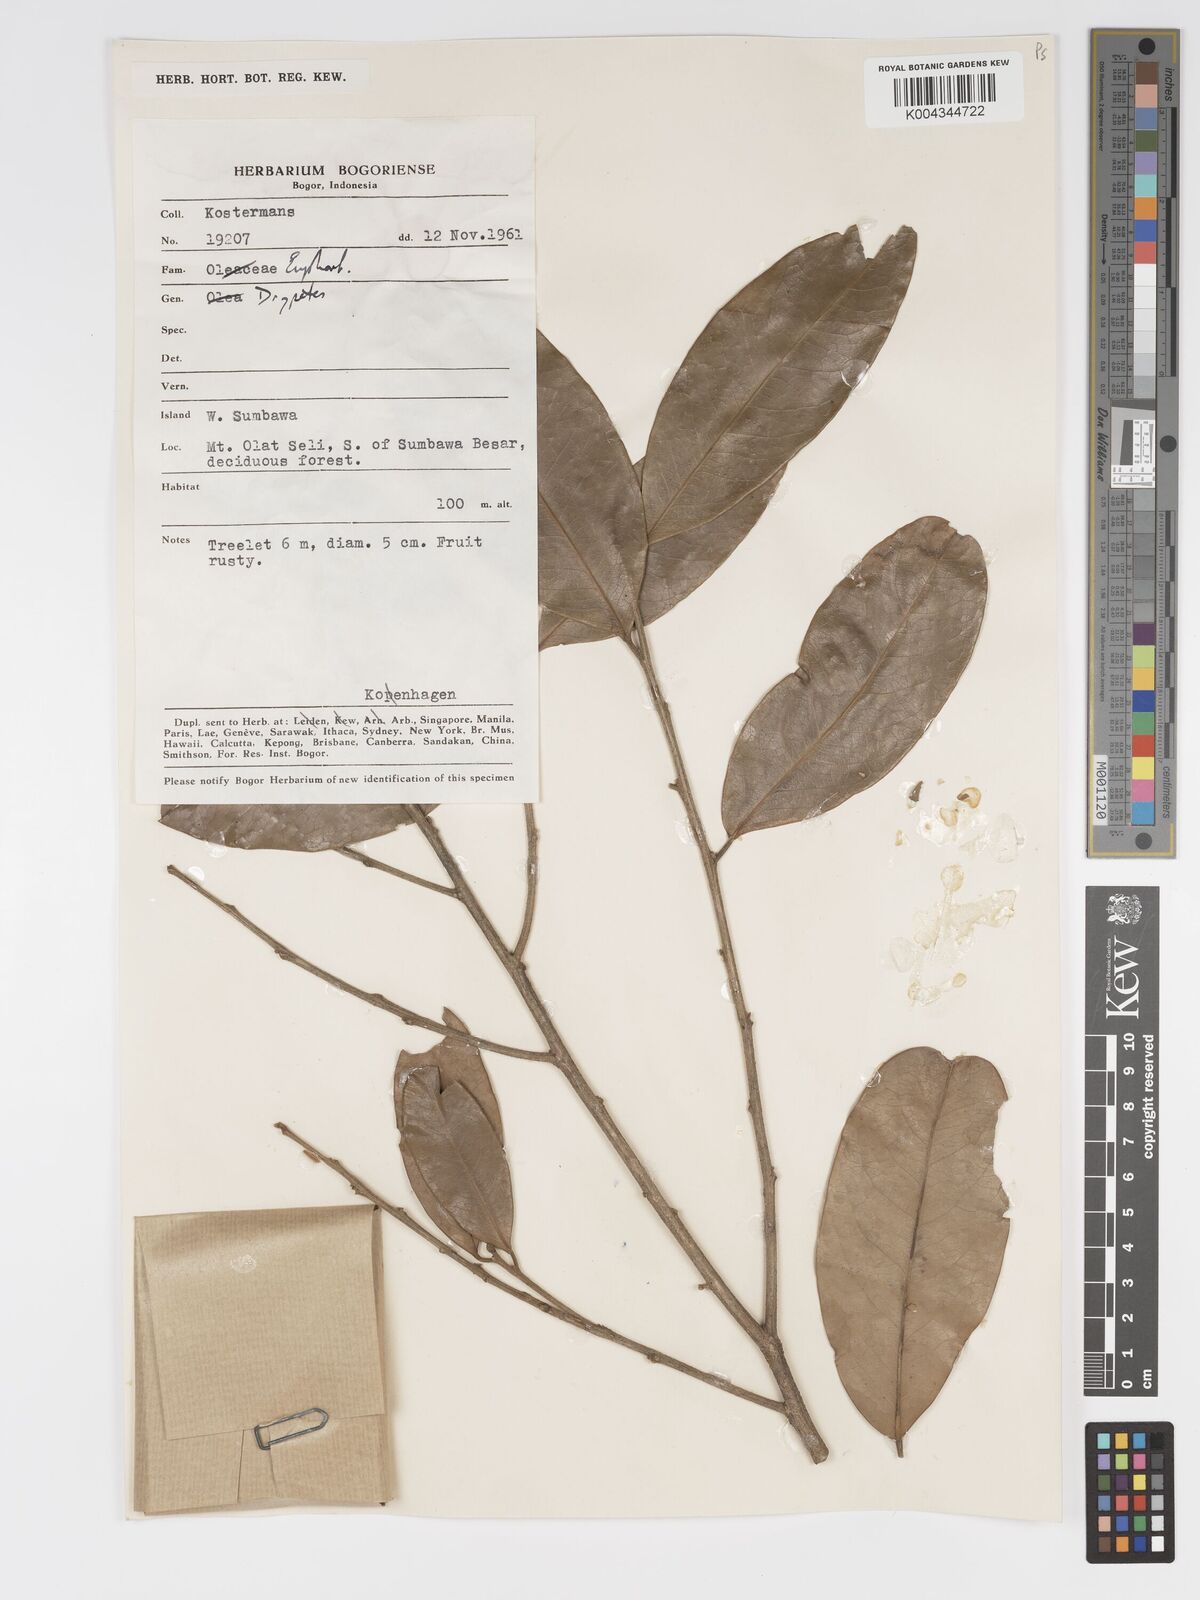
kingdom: Plantae
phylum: Tracheophyta
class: Magnoliopsida
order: Malpighiales
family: Putranjivaceae
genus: Drypetes
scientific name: Drypetes subcubica
